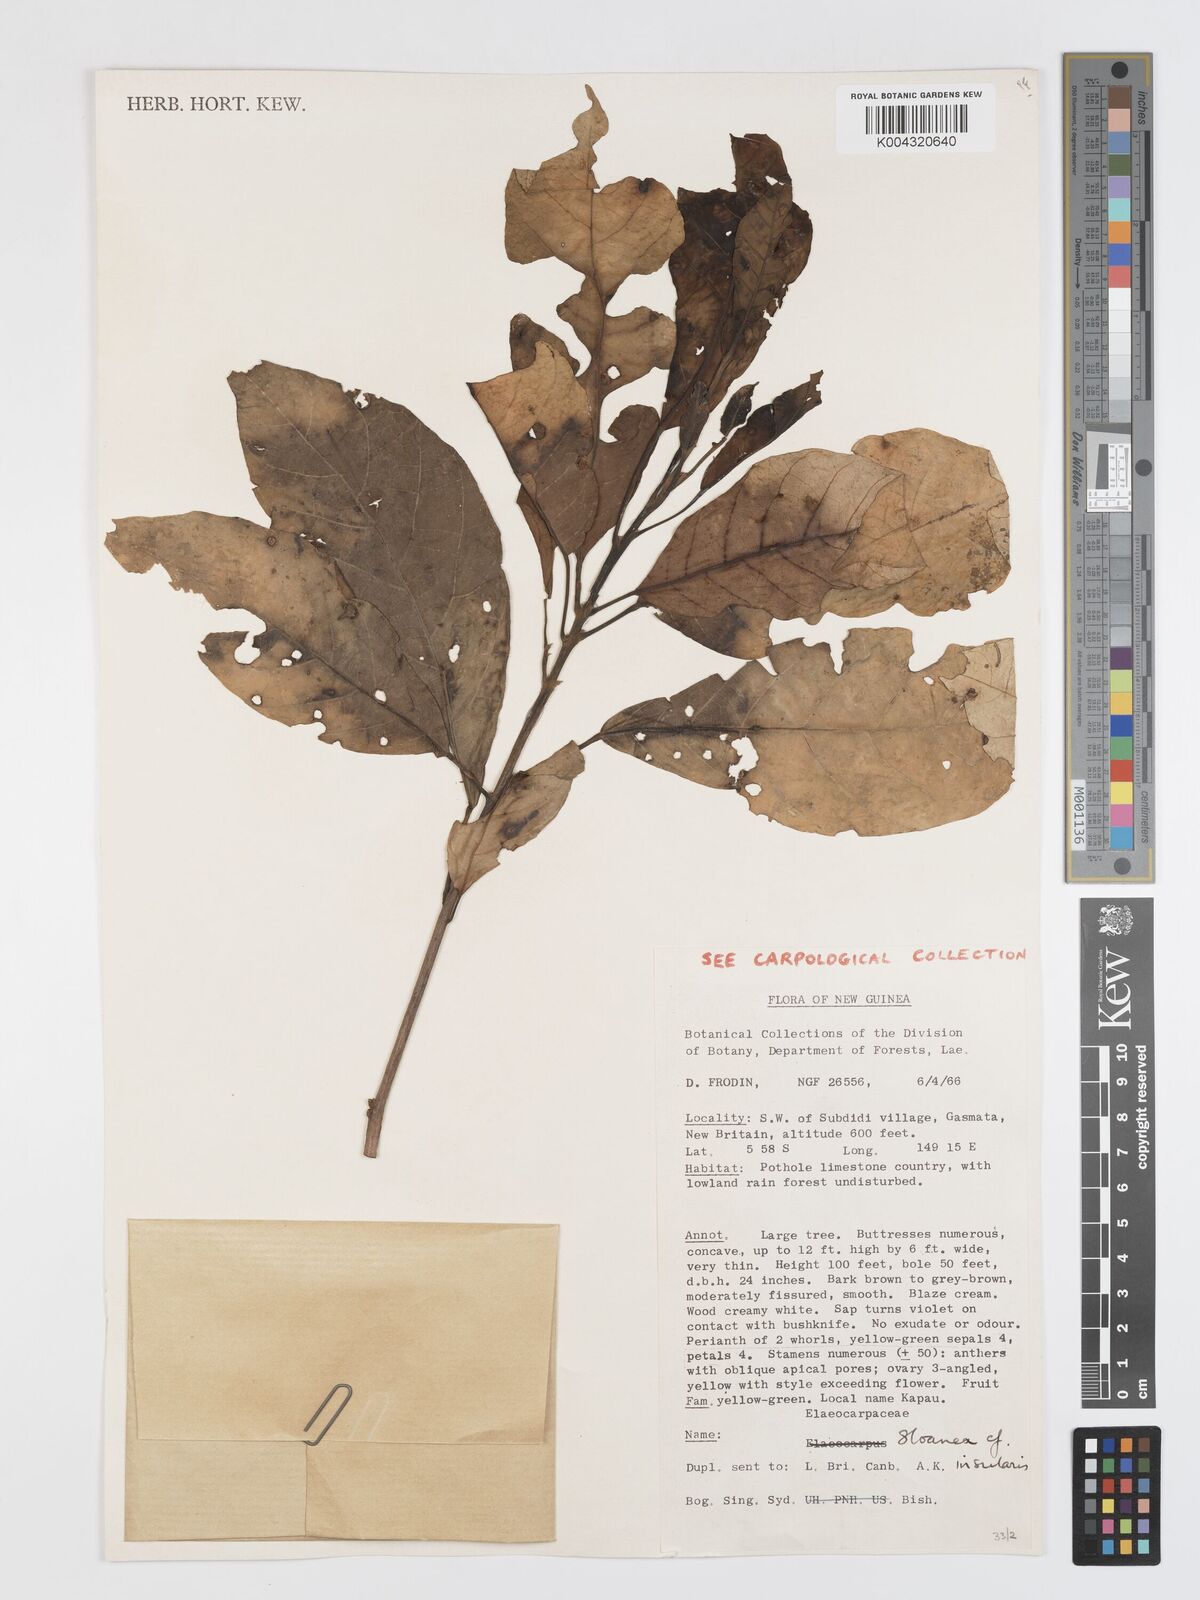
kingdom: Plantae
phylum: Tracheophyta
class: Magnoliopsida
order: Oxalidales
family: Elaeocarpaceae
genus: Sloanea
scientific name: Sloanea insularis
